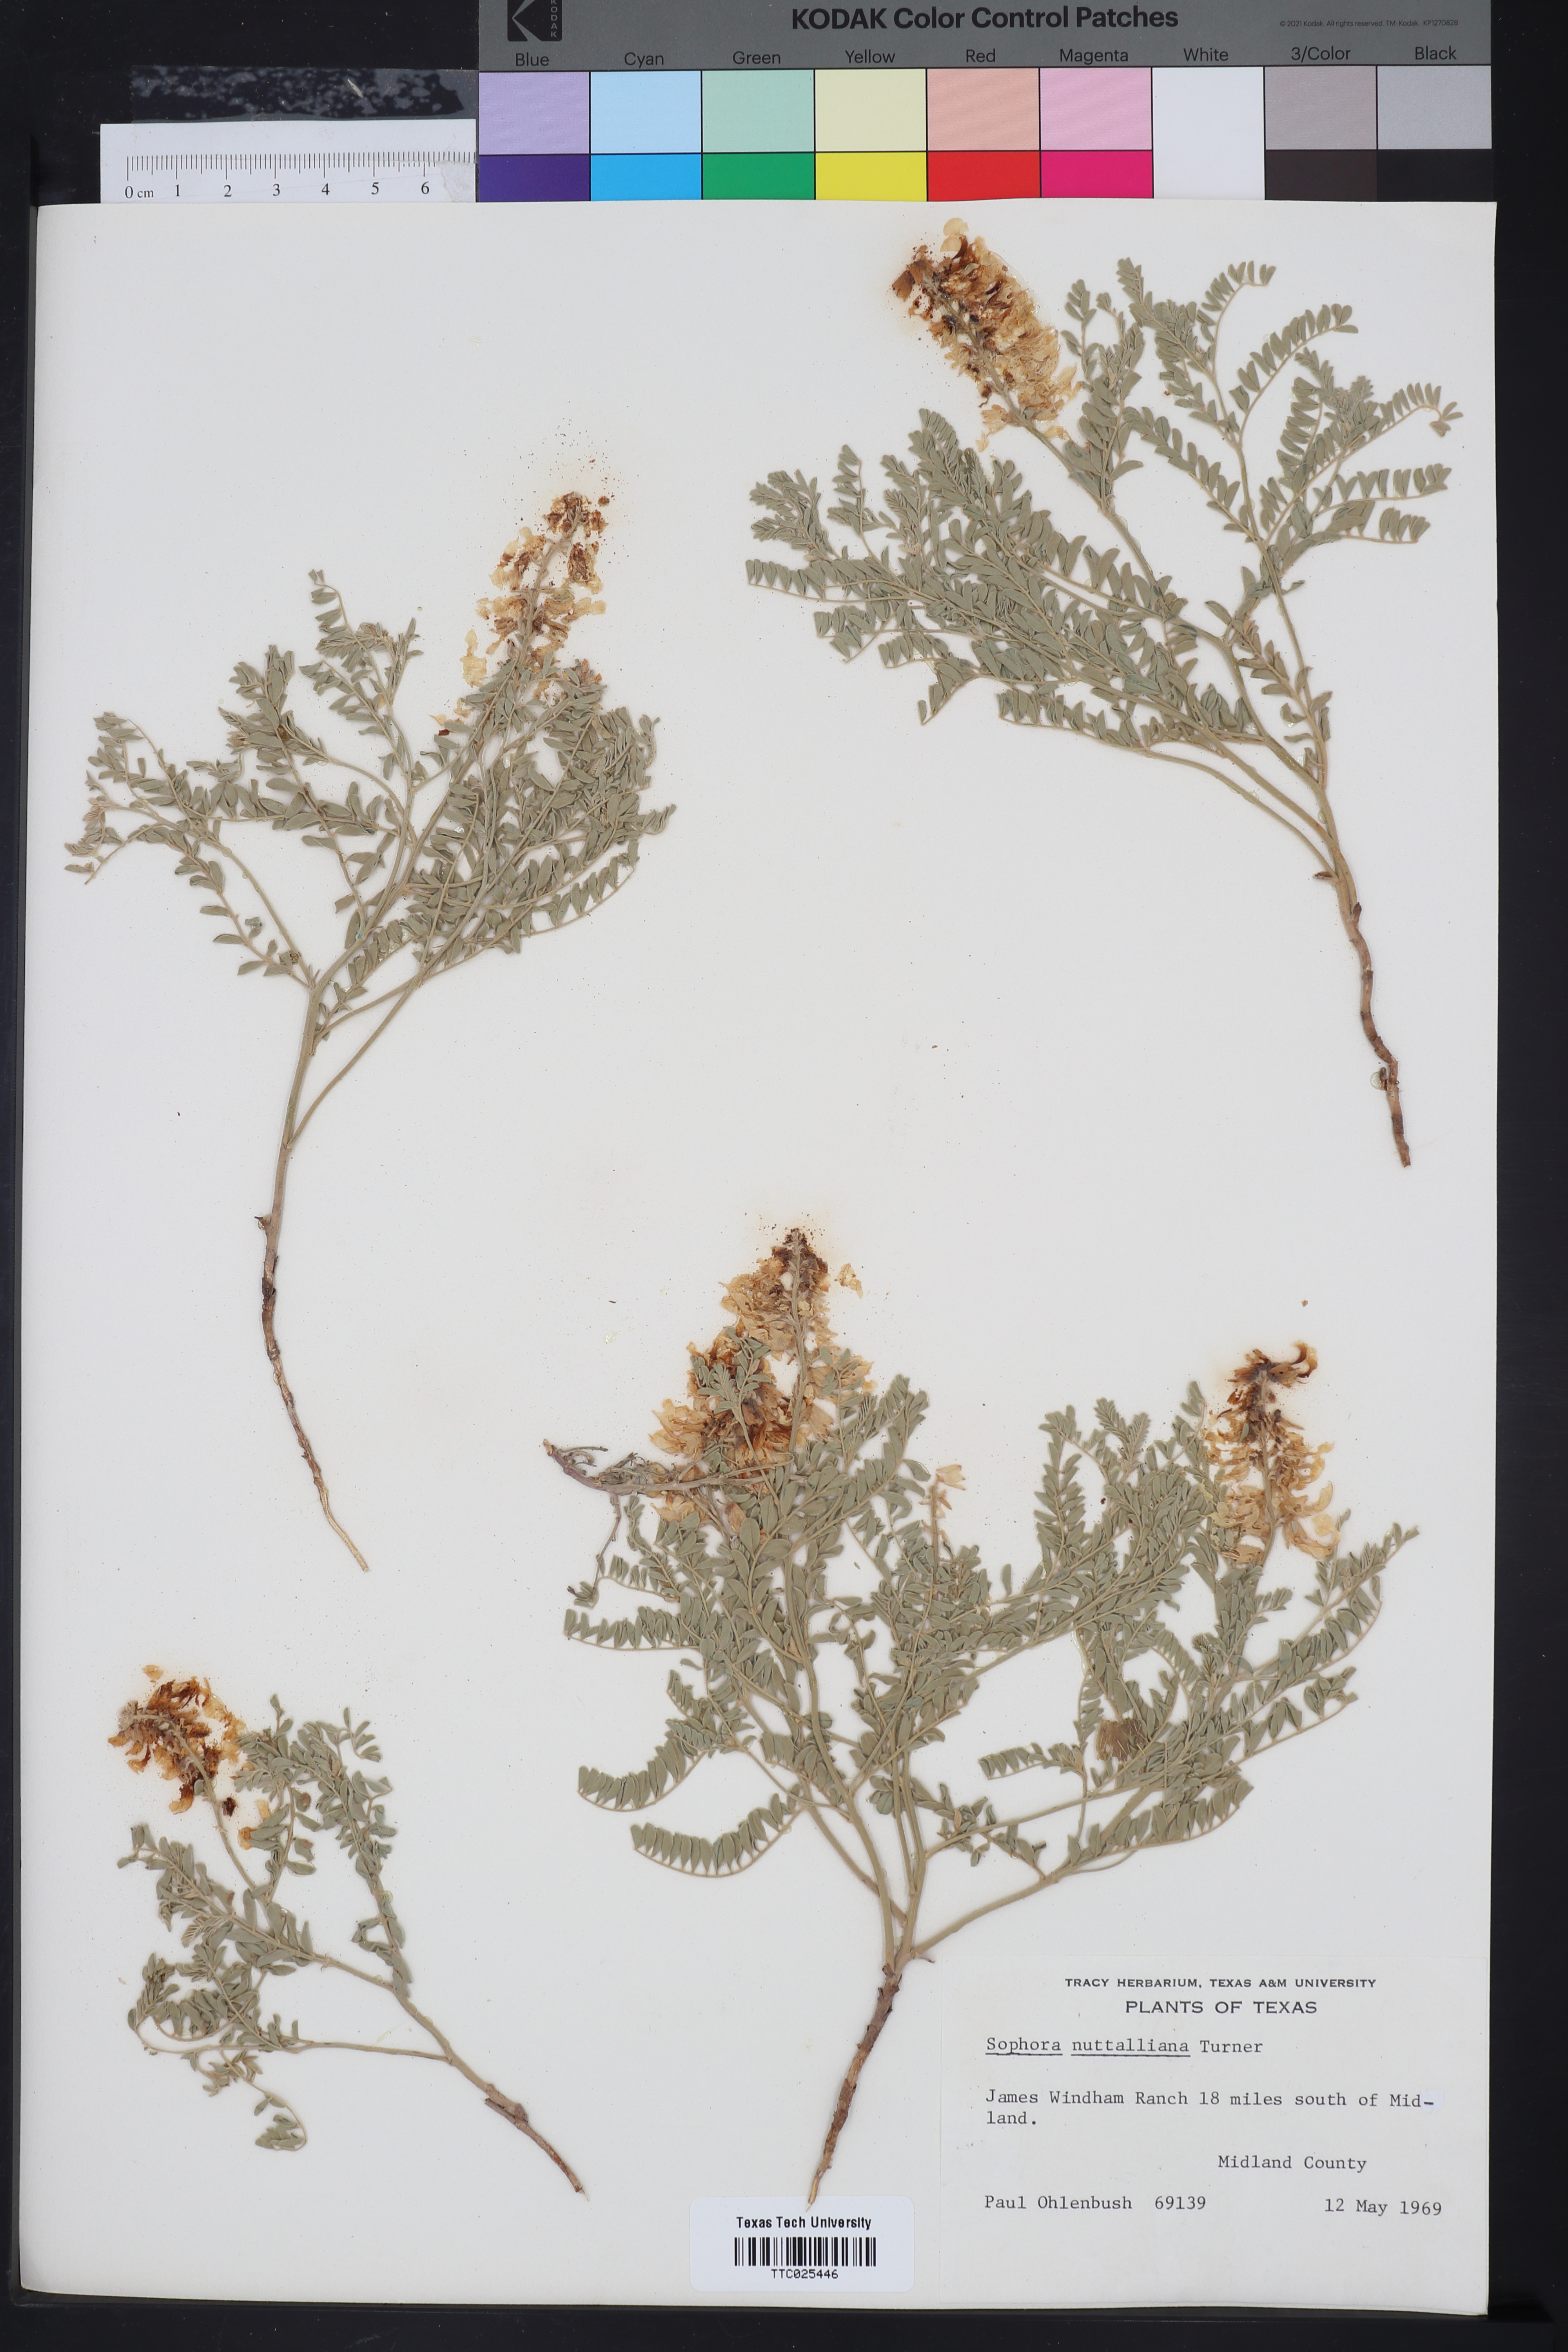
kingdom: Plantae
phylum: Tracheophyta
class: Magnoliopsida
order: Fabales
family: Fabaceae
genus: Sophora
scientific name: Sophora nuttalliana
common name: Silky sophora
